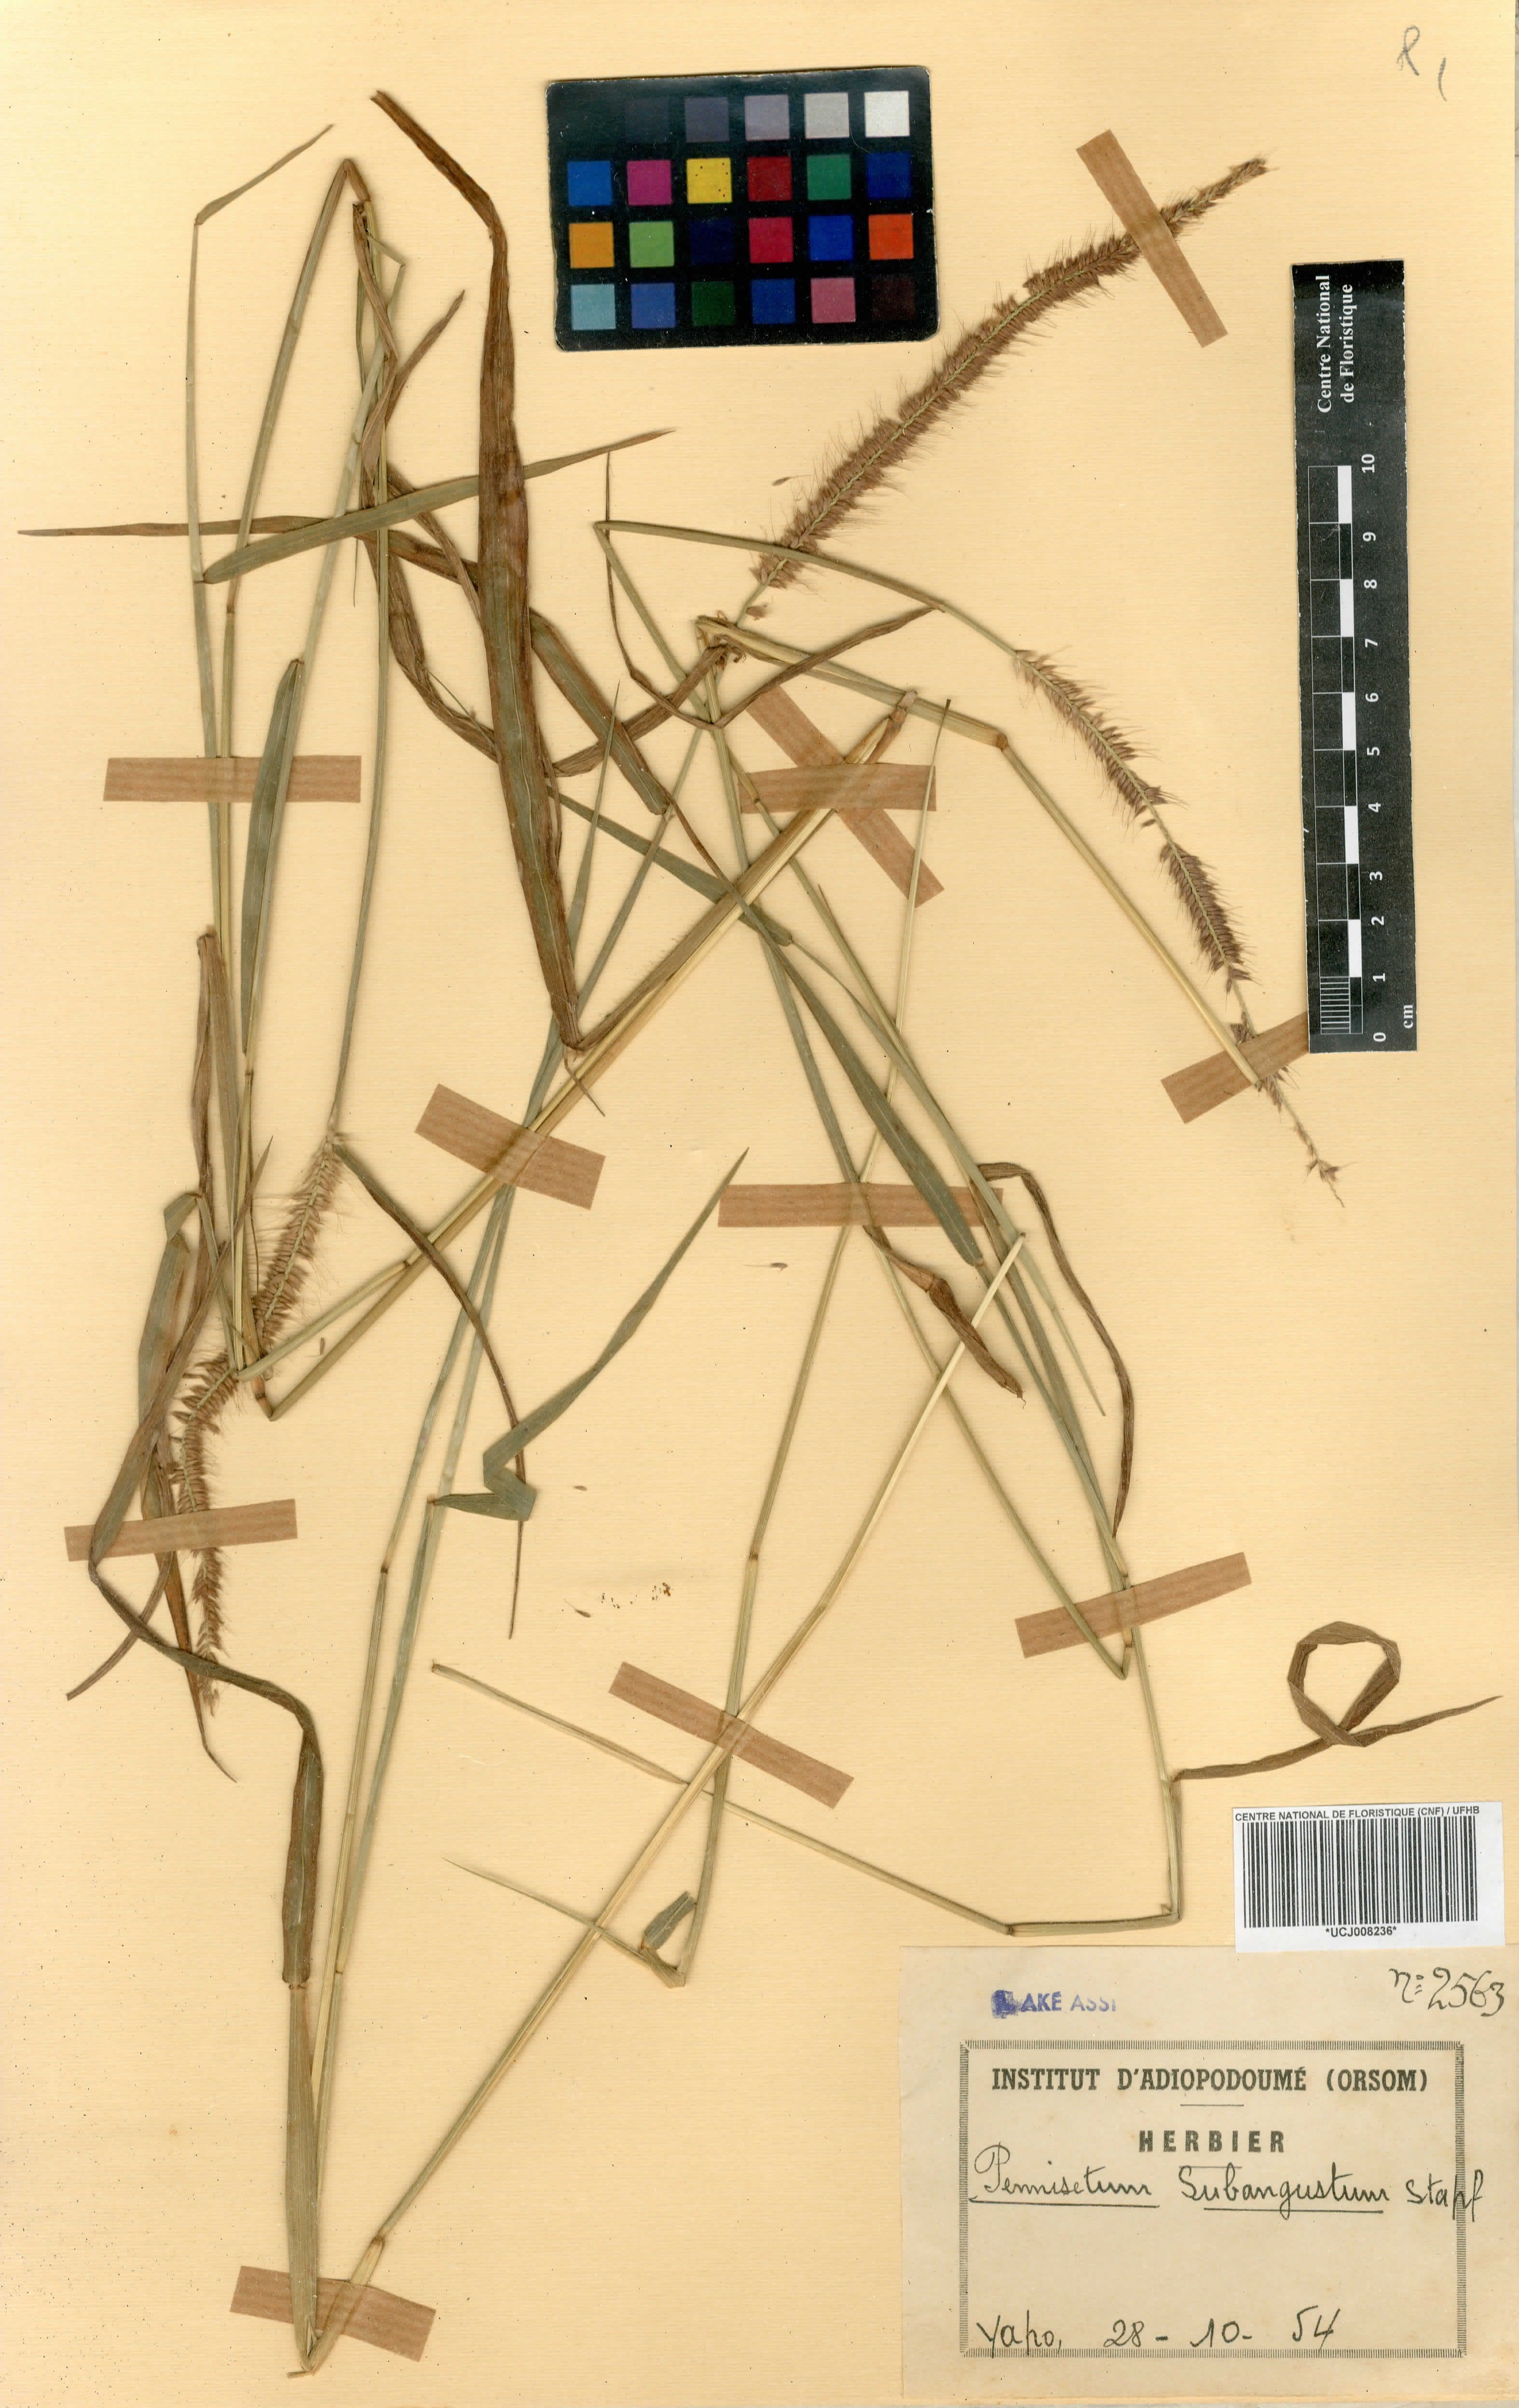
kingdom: Plantae
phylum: Tracheophyta
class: Liliopsida
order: Poales
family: Poaceae
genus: Cenchrus
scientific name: Cenchrus setosus
